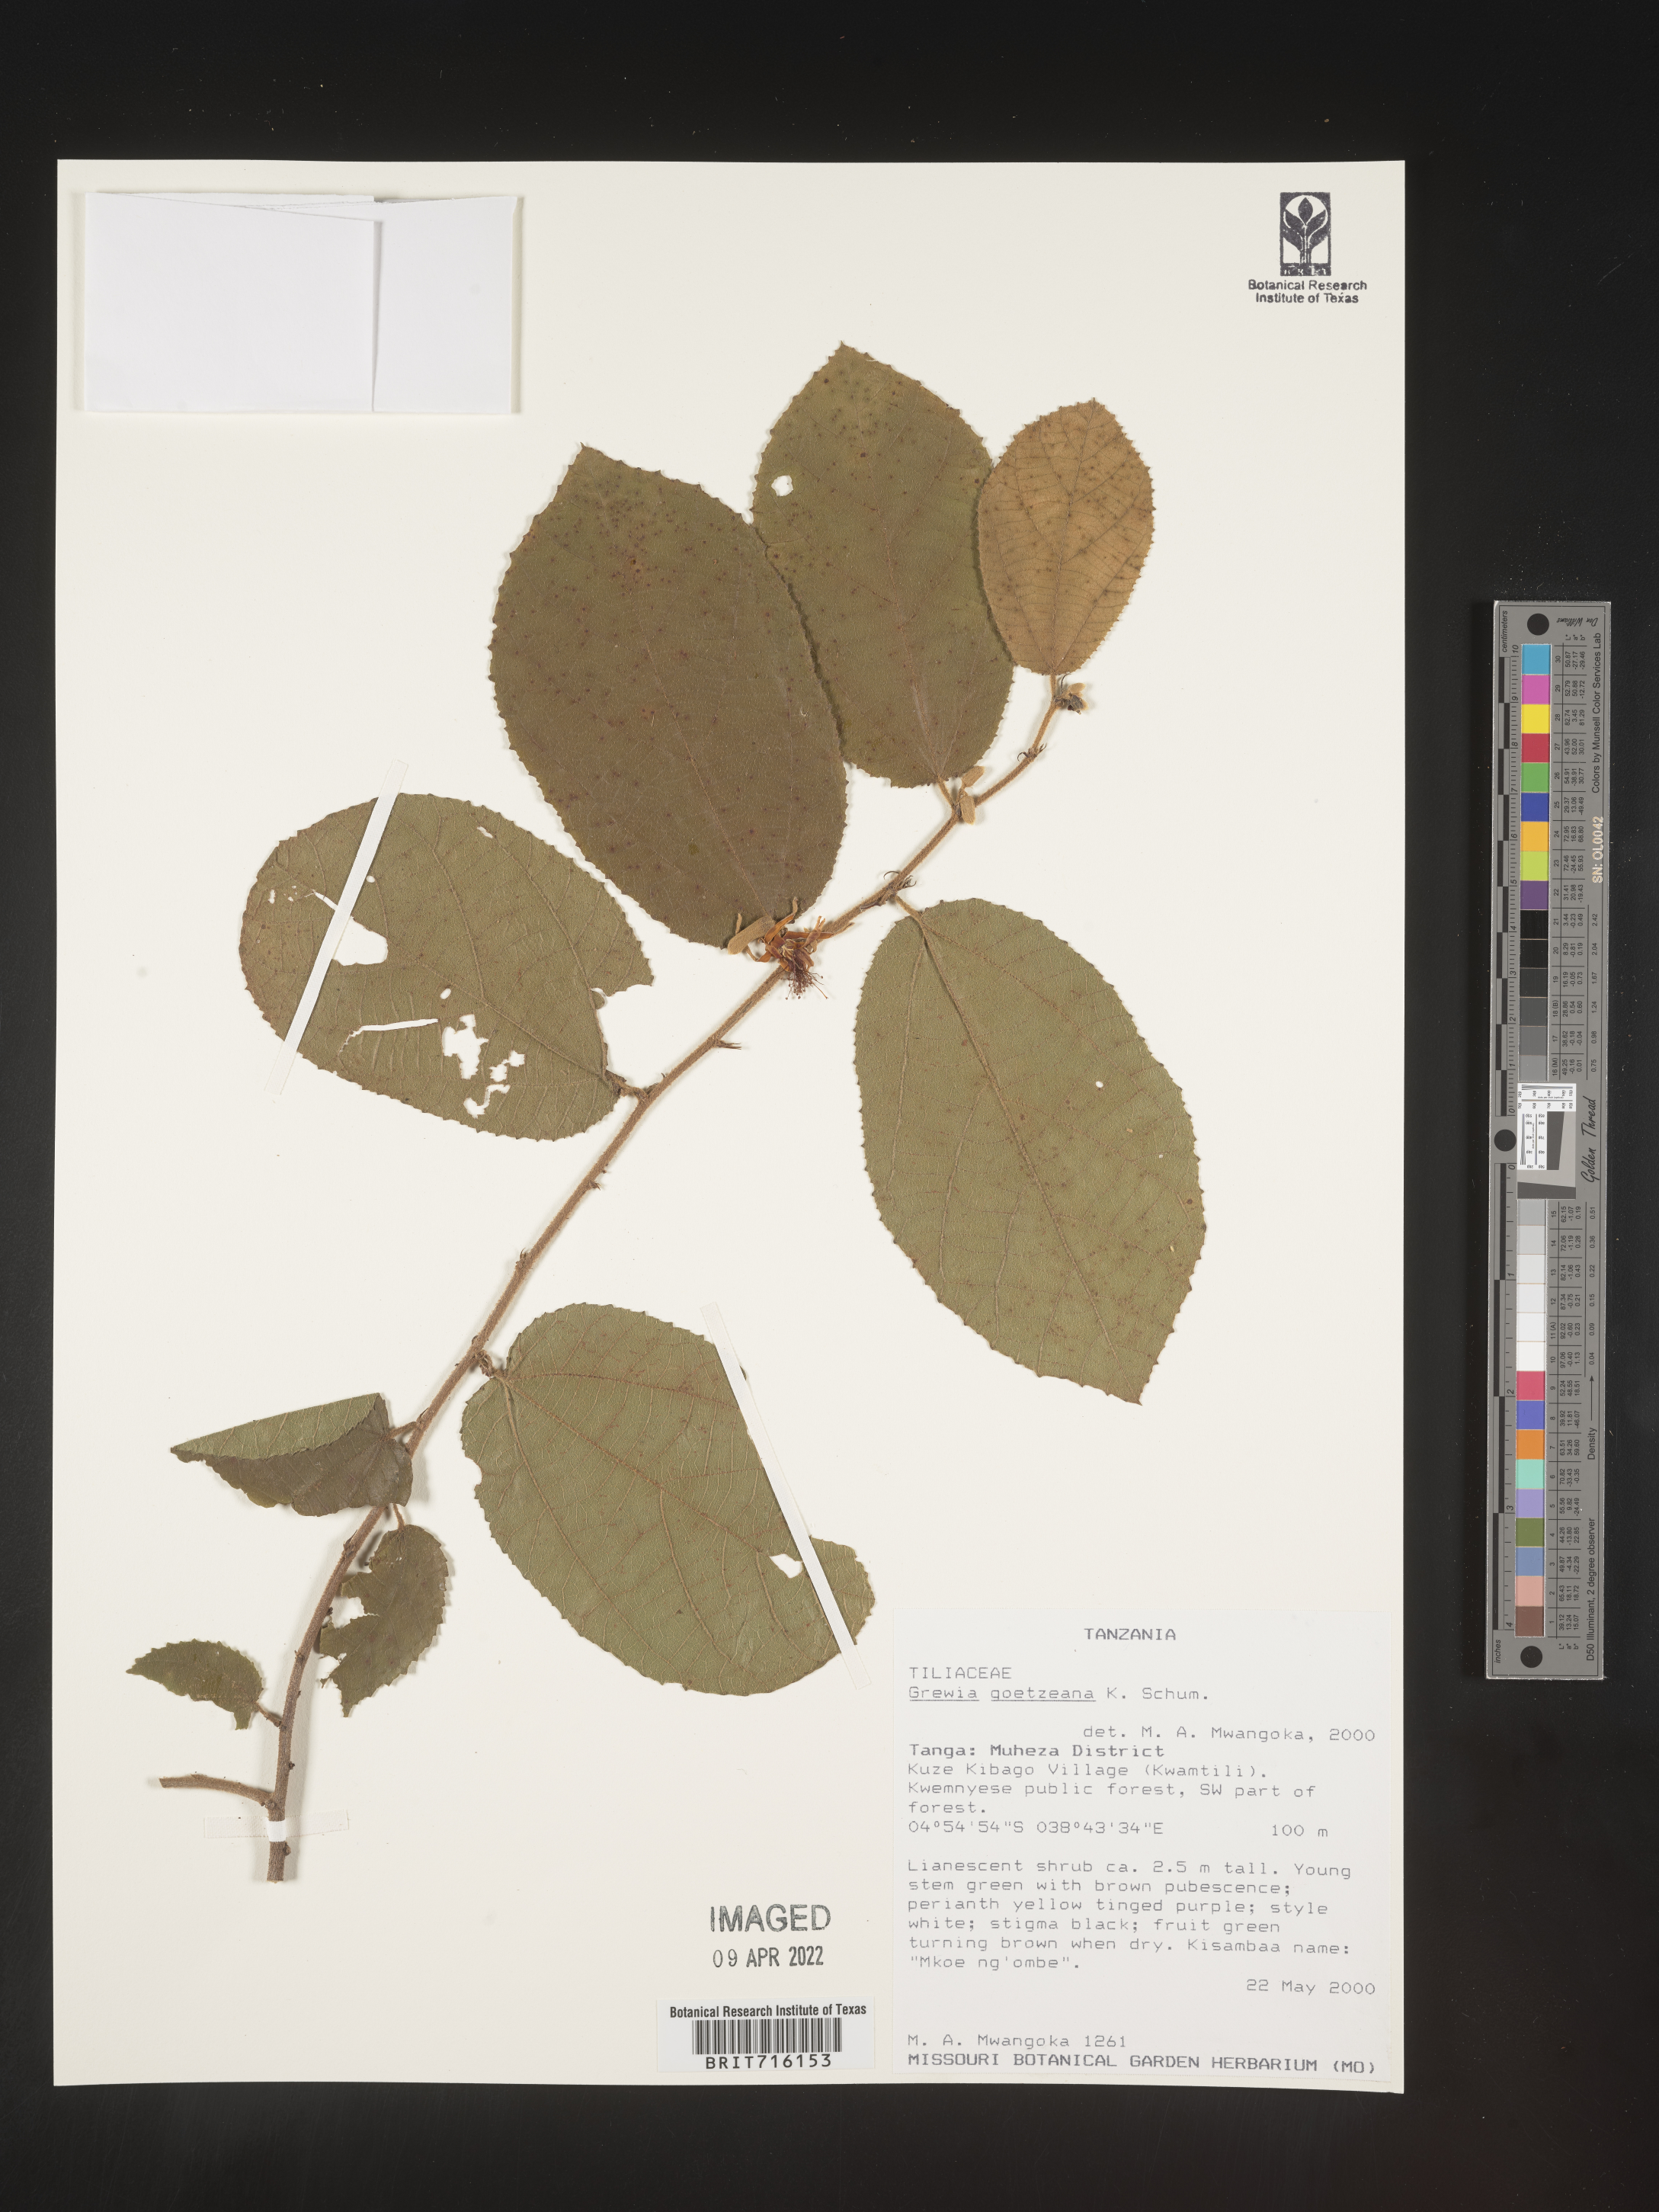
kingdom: Plantae
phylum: Tracheophyta
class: Magnoliopsida
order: Malvales
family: Malvaceae
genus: Grewia
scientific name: Grewia
